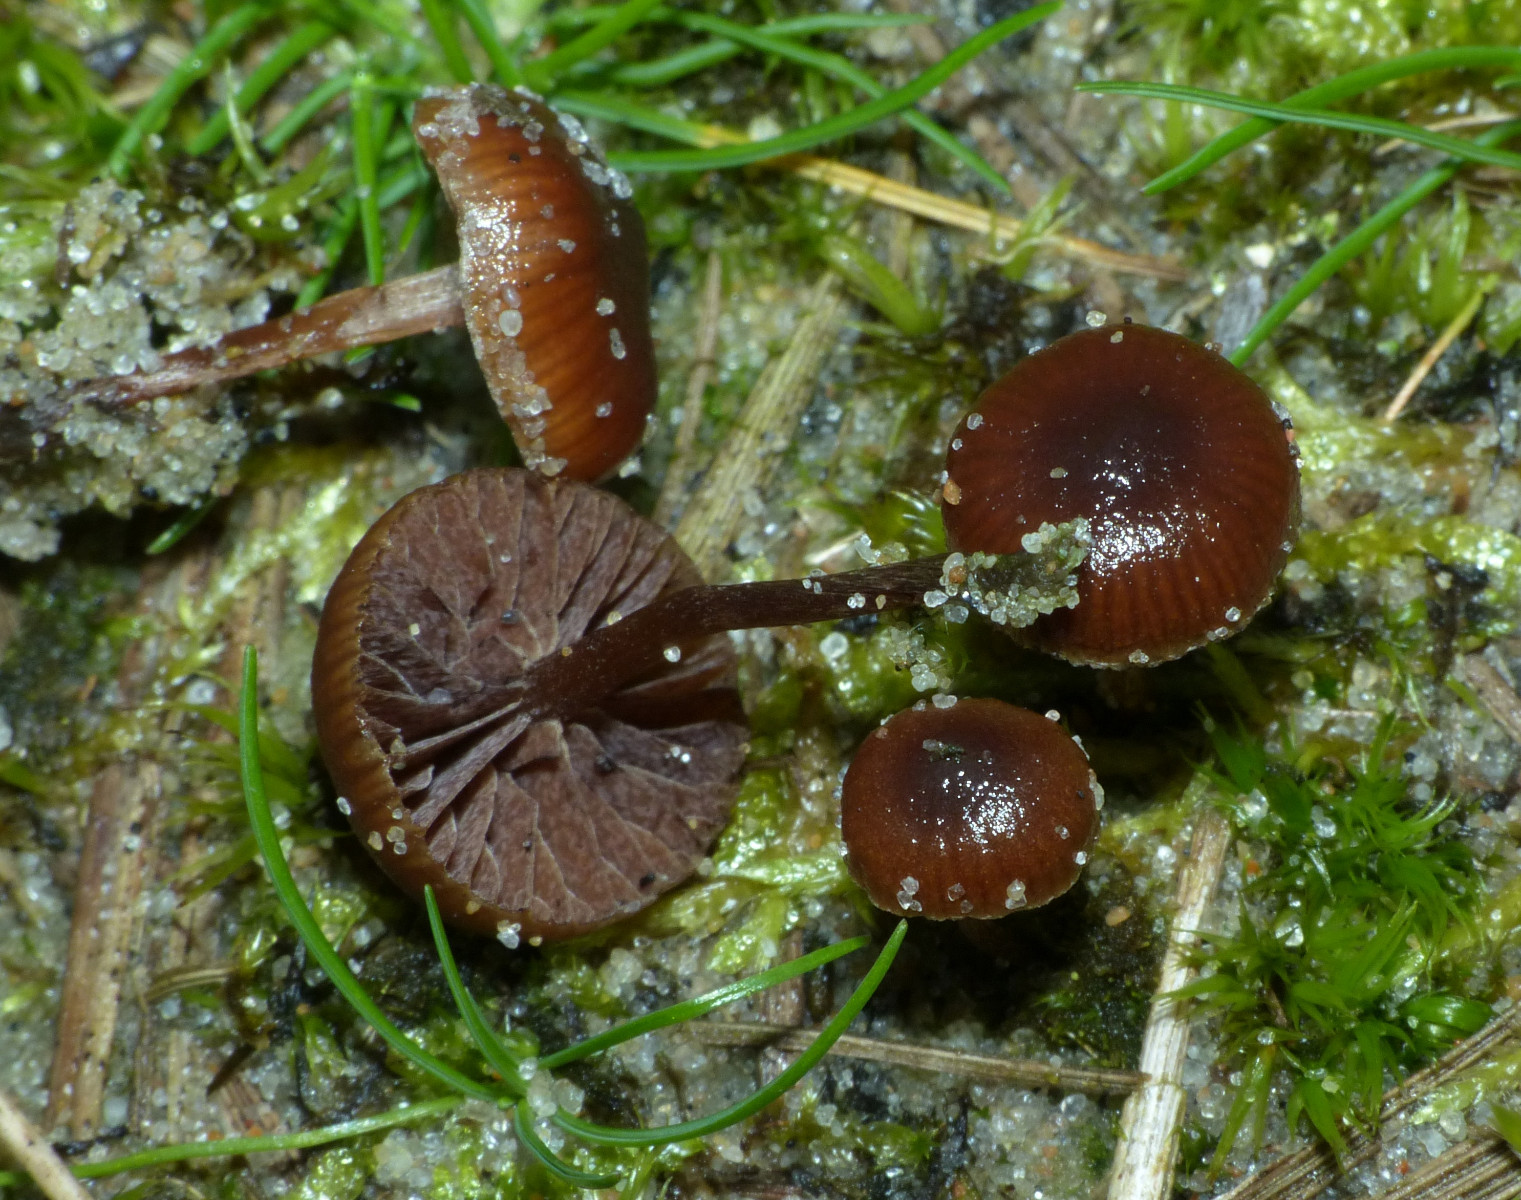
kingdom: Fungi
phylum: Basidiomycota
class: Agaricomycetes
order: Agaricales
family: Strophariaceae
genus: Deconica
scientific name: Deconica montana
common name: rødbrun stråhat
